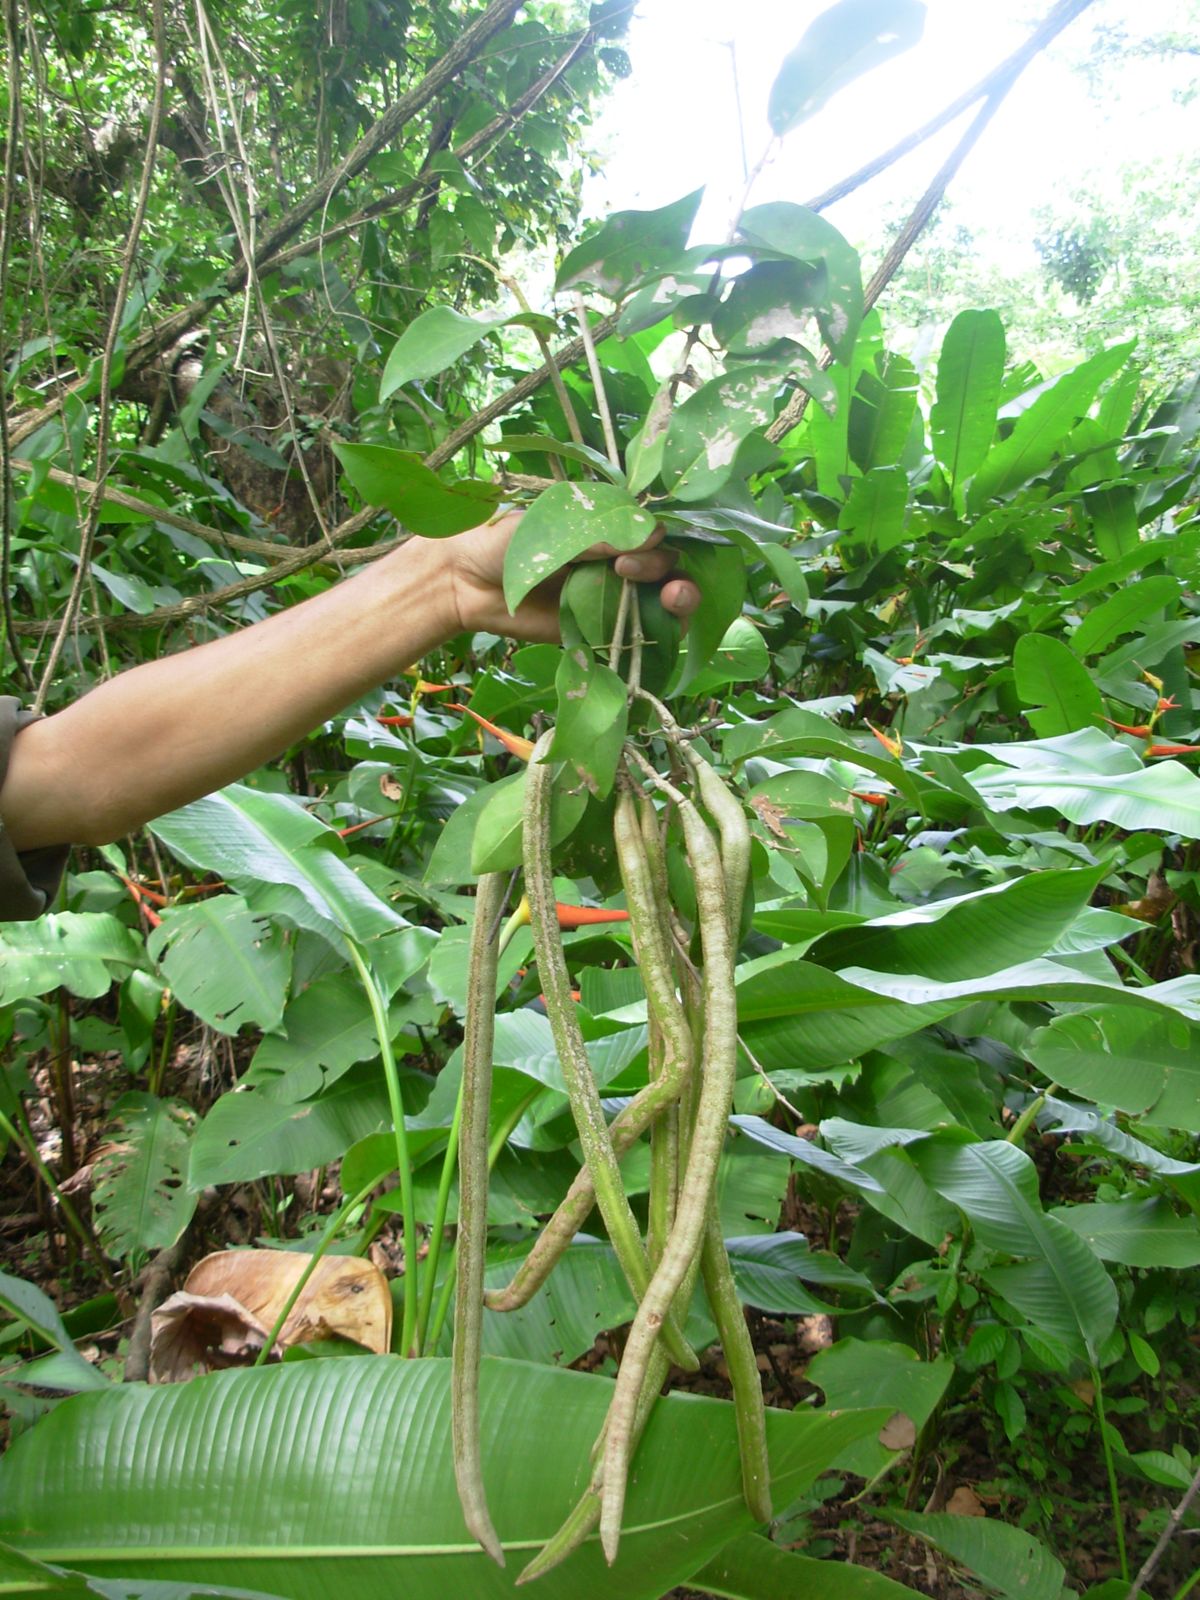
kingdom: Plantae
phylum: Tracheophyta
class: Magnoliopsida
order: Lamiales
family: Bignoniaceae
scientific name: Bignoniaceae
